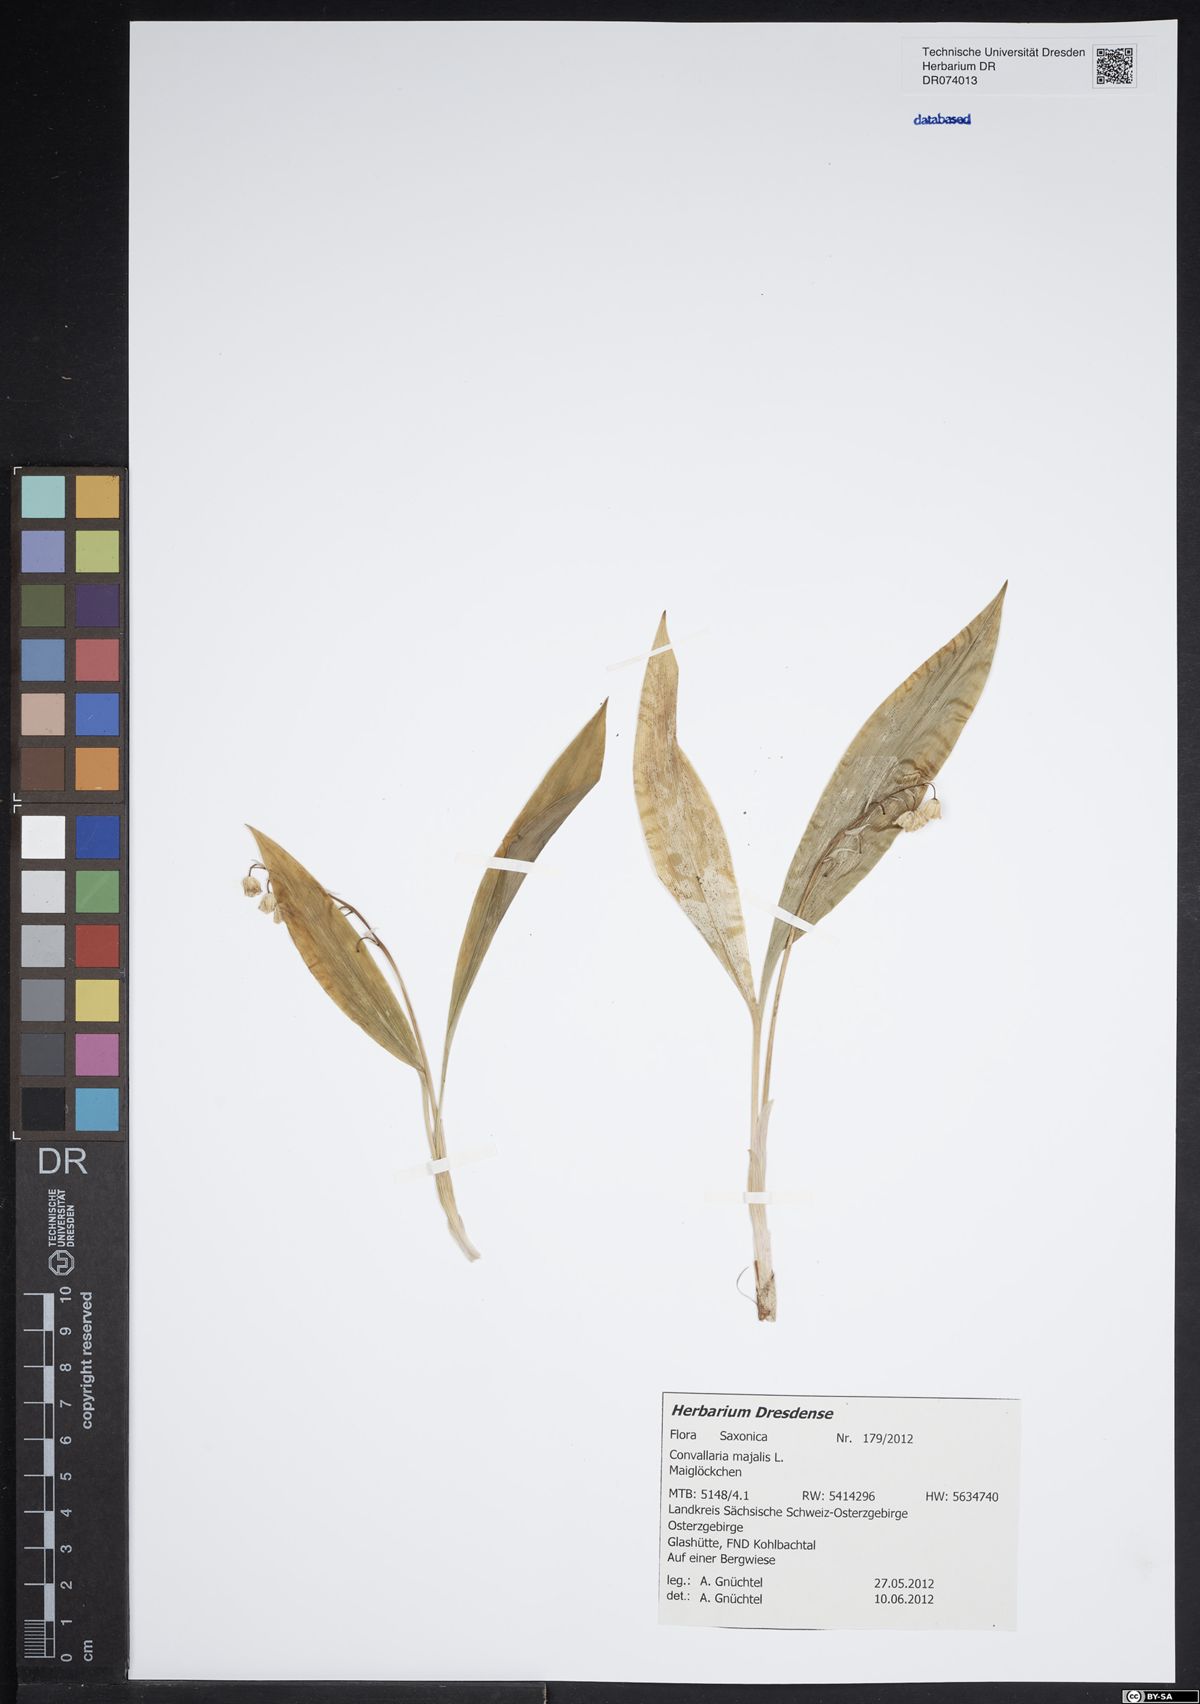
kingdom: Plantae
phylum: Tracheophyta
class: Liliopsida
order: Asparagales
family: Asparagaceae
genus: Convallaria
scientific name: Convallaria majalis
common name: Lily-of-the-valley
